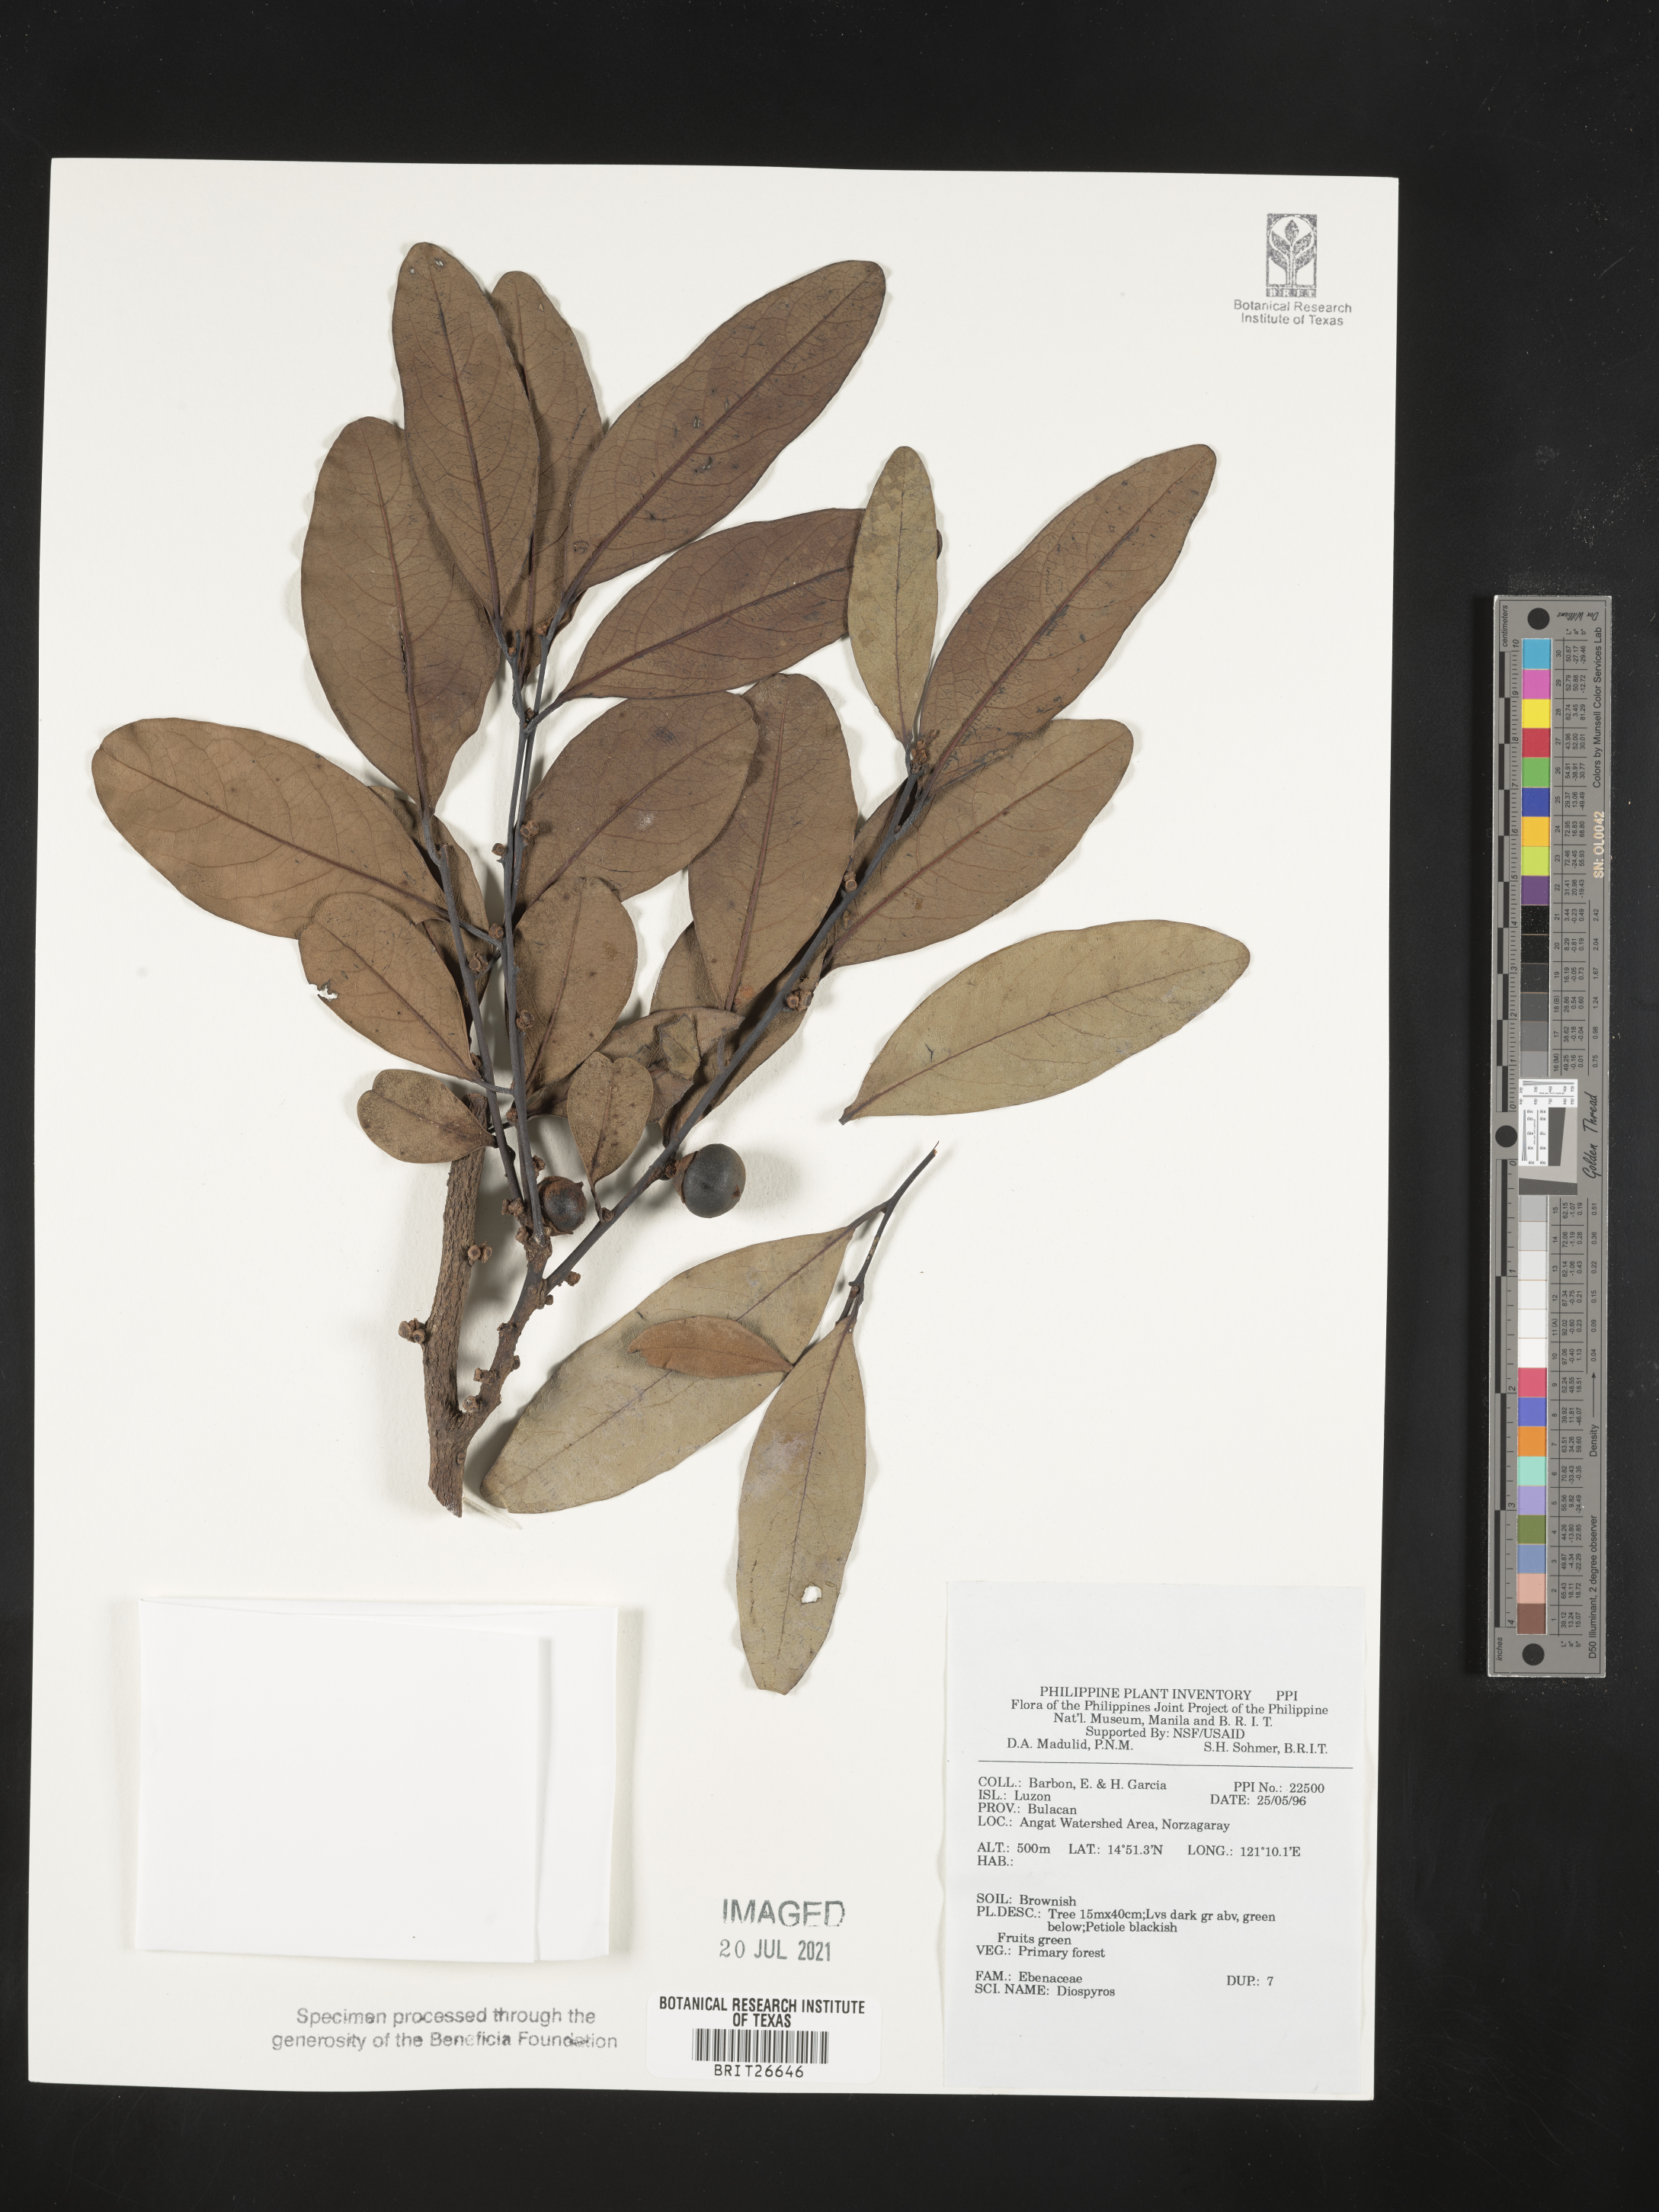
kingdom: Plantae
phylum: Tracheophyta
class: Magnoliopsida
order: Ericales
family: Ebenaceae
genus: Diospyros
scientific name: Diospyros
